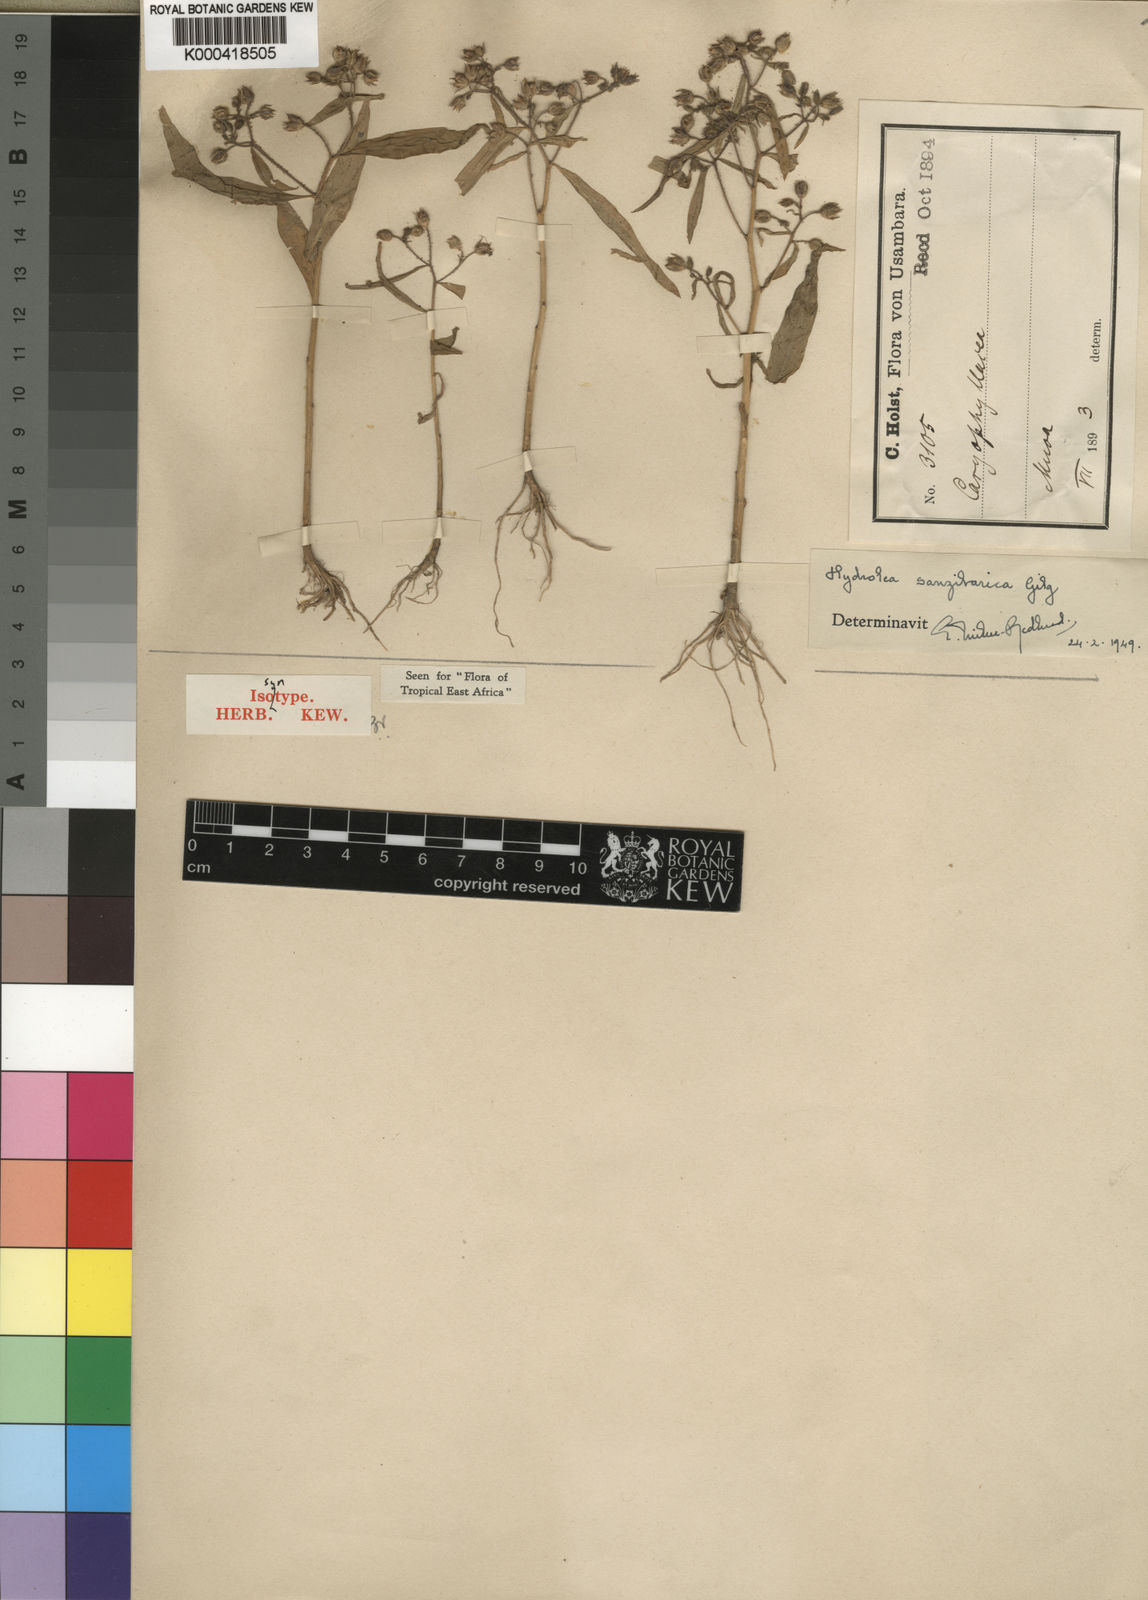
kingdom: Plantae
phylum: Tracheophyta
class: Magnoliopsida
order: Solanales
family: Hydroleaceae
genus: Hydrolea
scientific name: Hydrolea zeylanica
